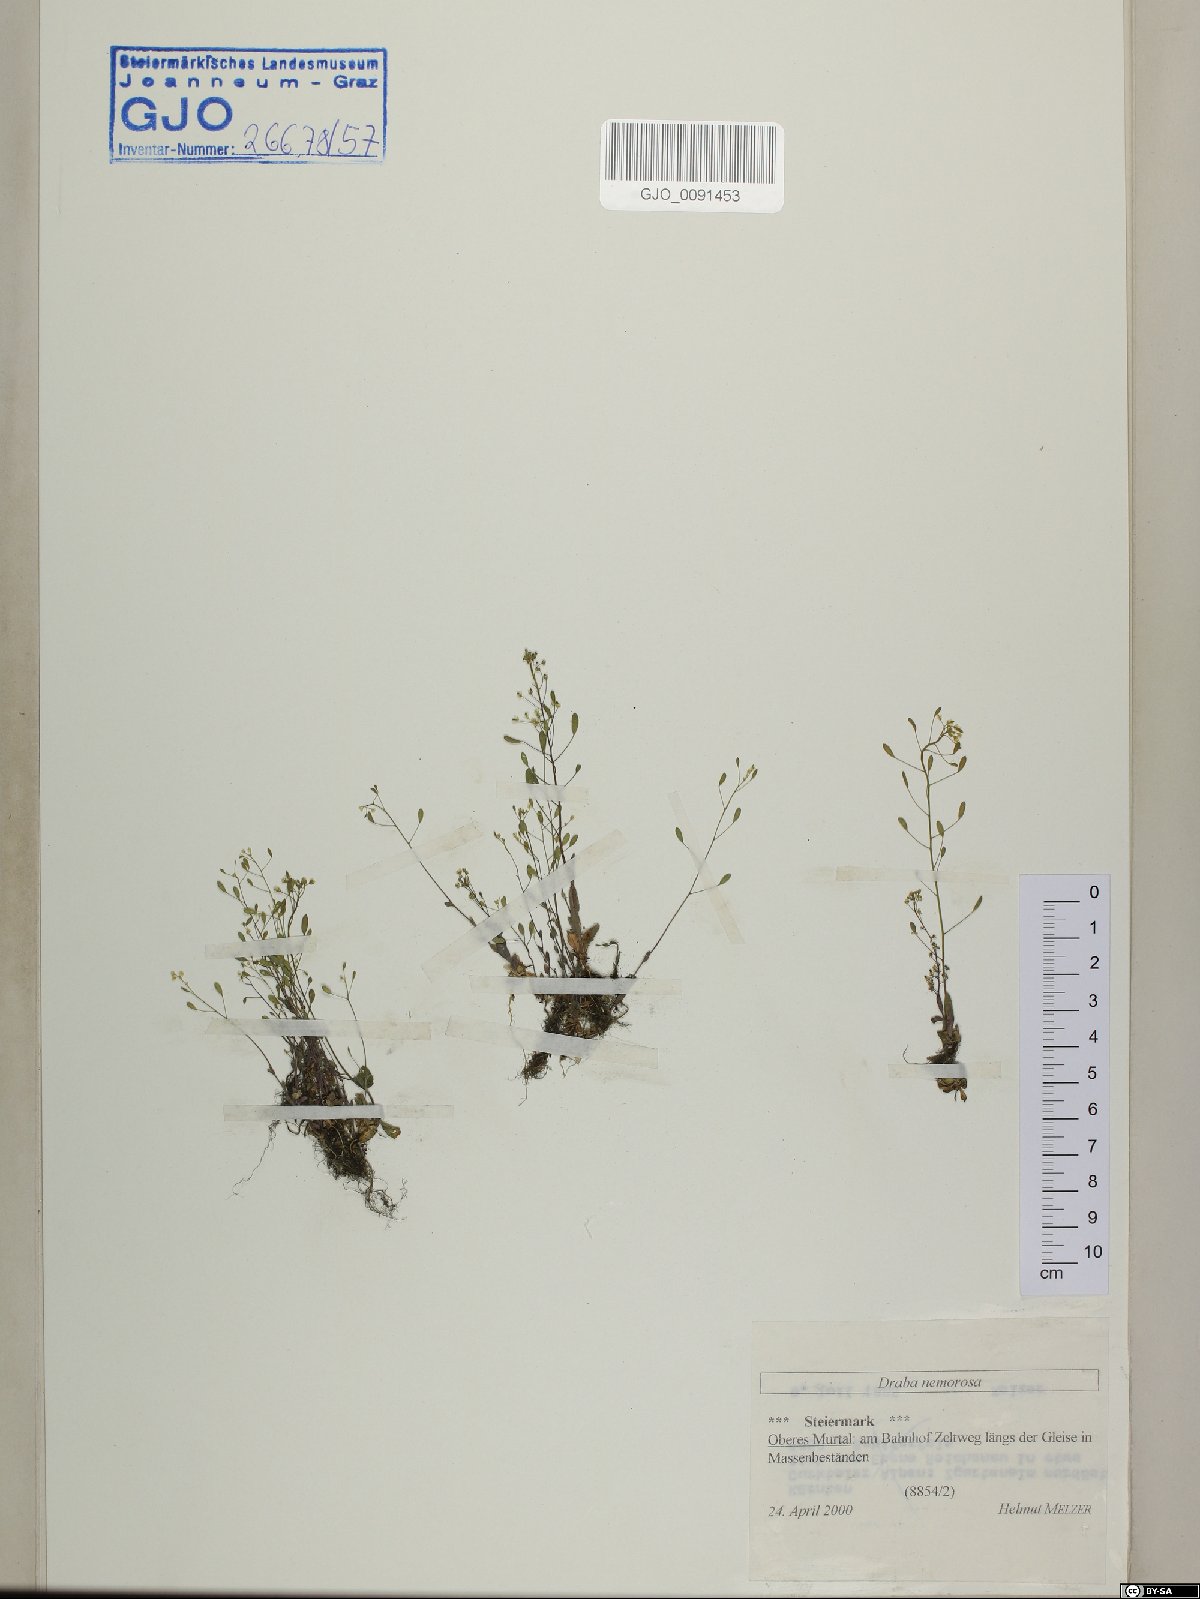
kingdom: Plantae
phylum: Tracheophyta
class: Magnoliopsida
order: Brassicales
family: Brassicaceae
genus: Draba
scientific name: Draba nemorosa
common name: Wood whitlow-grass
